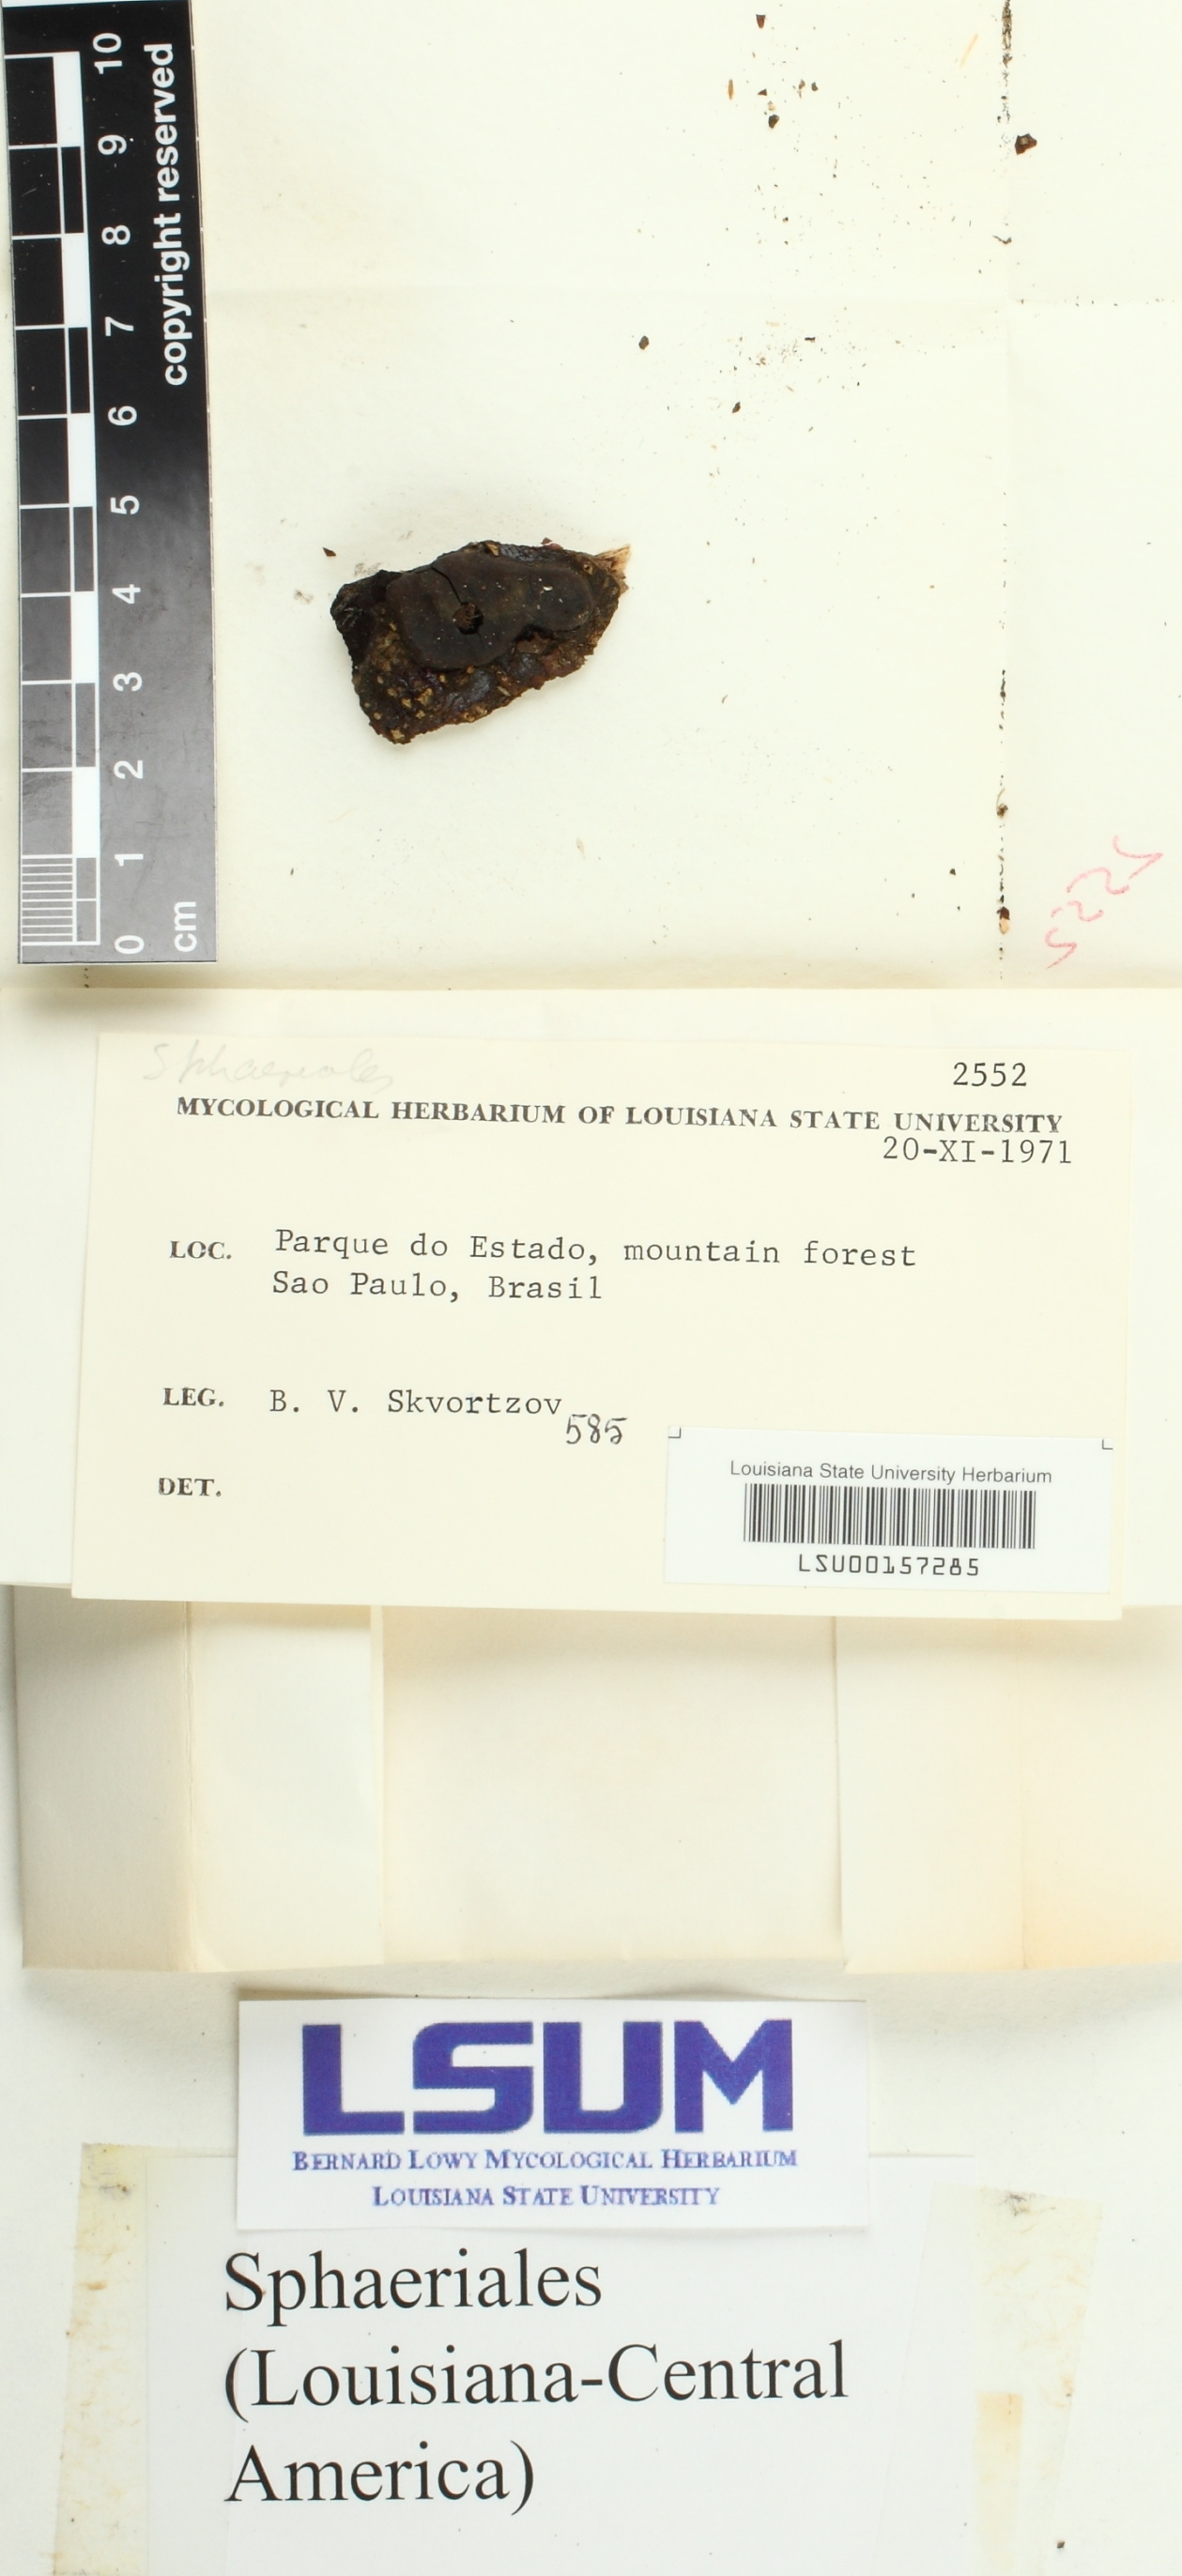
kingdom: Fungi
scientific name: Fungi
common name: Fungi
